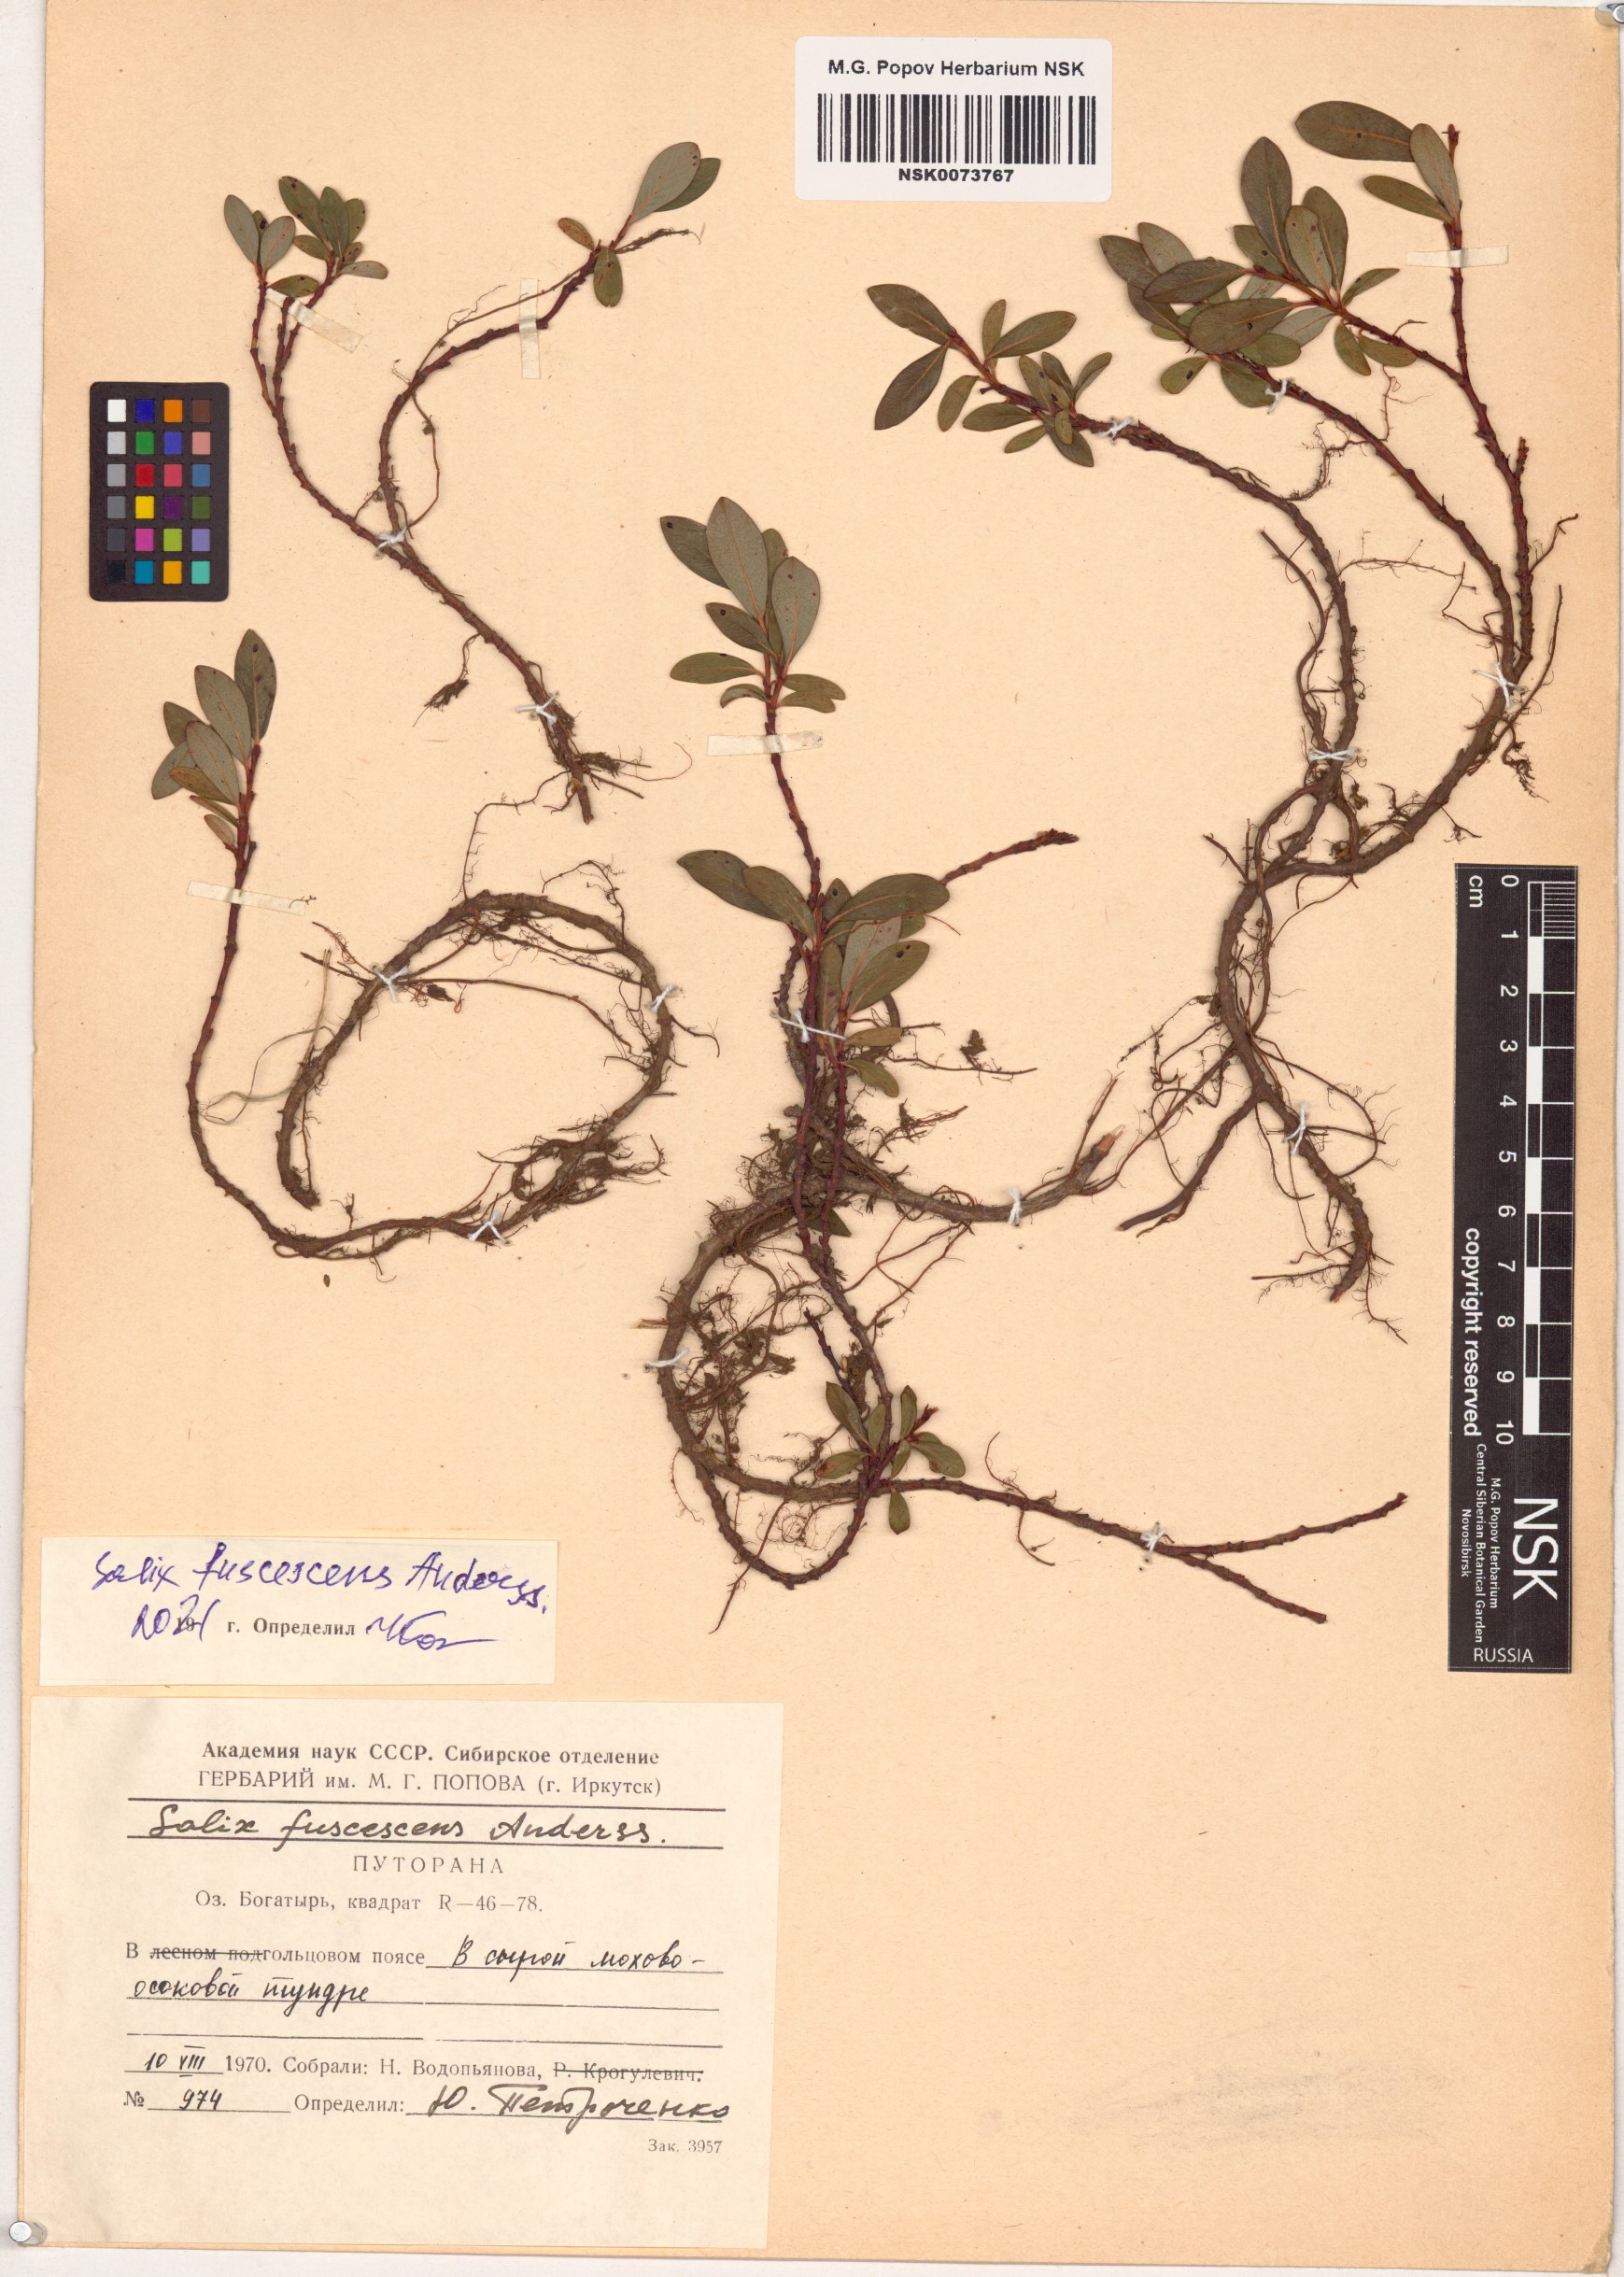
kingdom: Plantae
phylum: Tracheophyta
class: Magnoliopsida
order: Malpighiales
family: Salicaceae
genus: Salix
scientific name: Salix fuscescens
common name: Brownish willow
